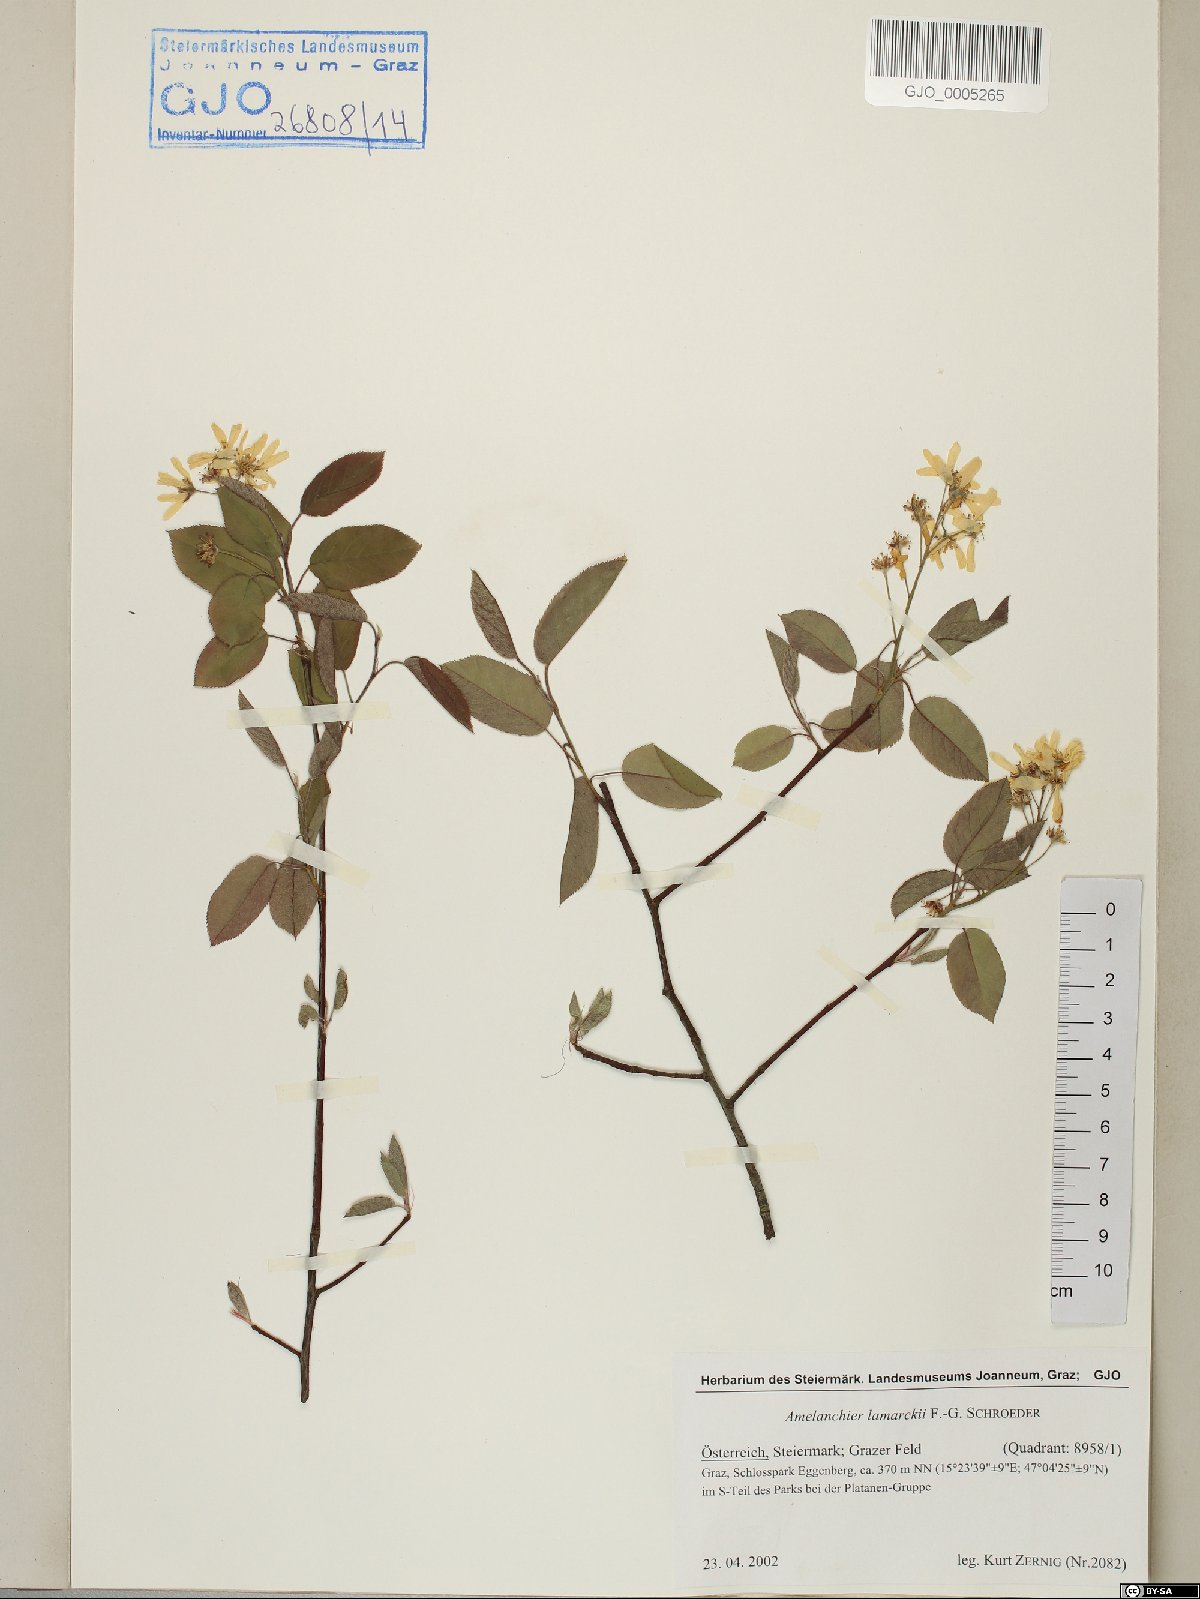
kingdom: Plantae
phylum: Tracheophyta
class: Magnoliopsida
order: Rosales
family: Rosaceae
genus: Amelanchier
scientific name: Amelanchier lamarckii
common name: Juneberry
